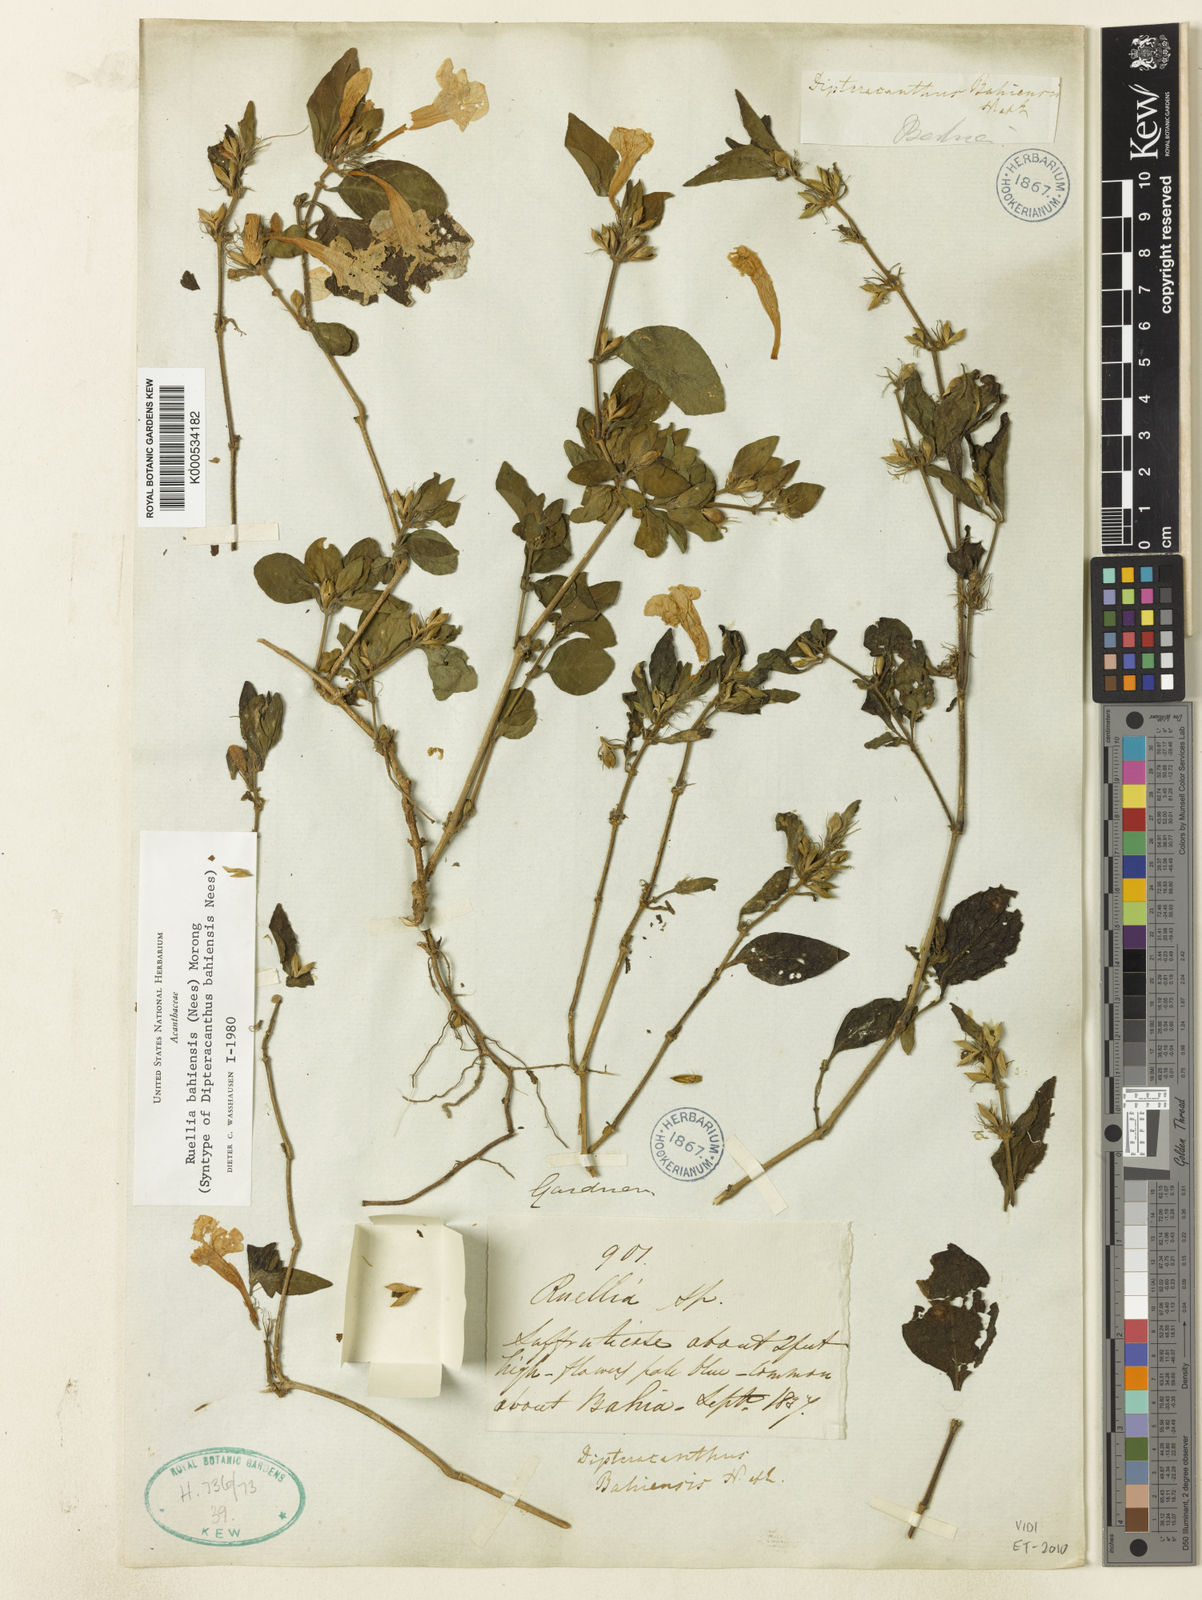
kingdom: Plantae
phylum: Tracheophyta
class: Magnoliopsida
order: Lamiales
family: Acanthaceae
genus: Ruellia
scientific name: Ruellia bahiensis
